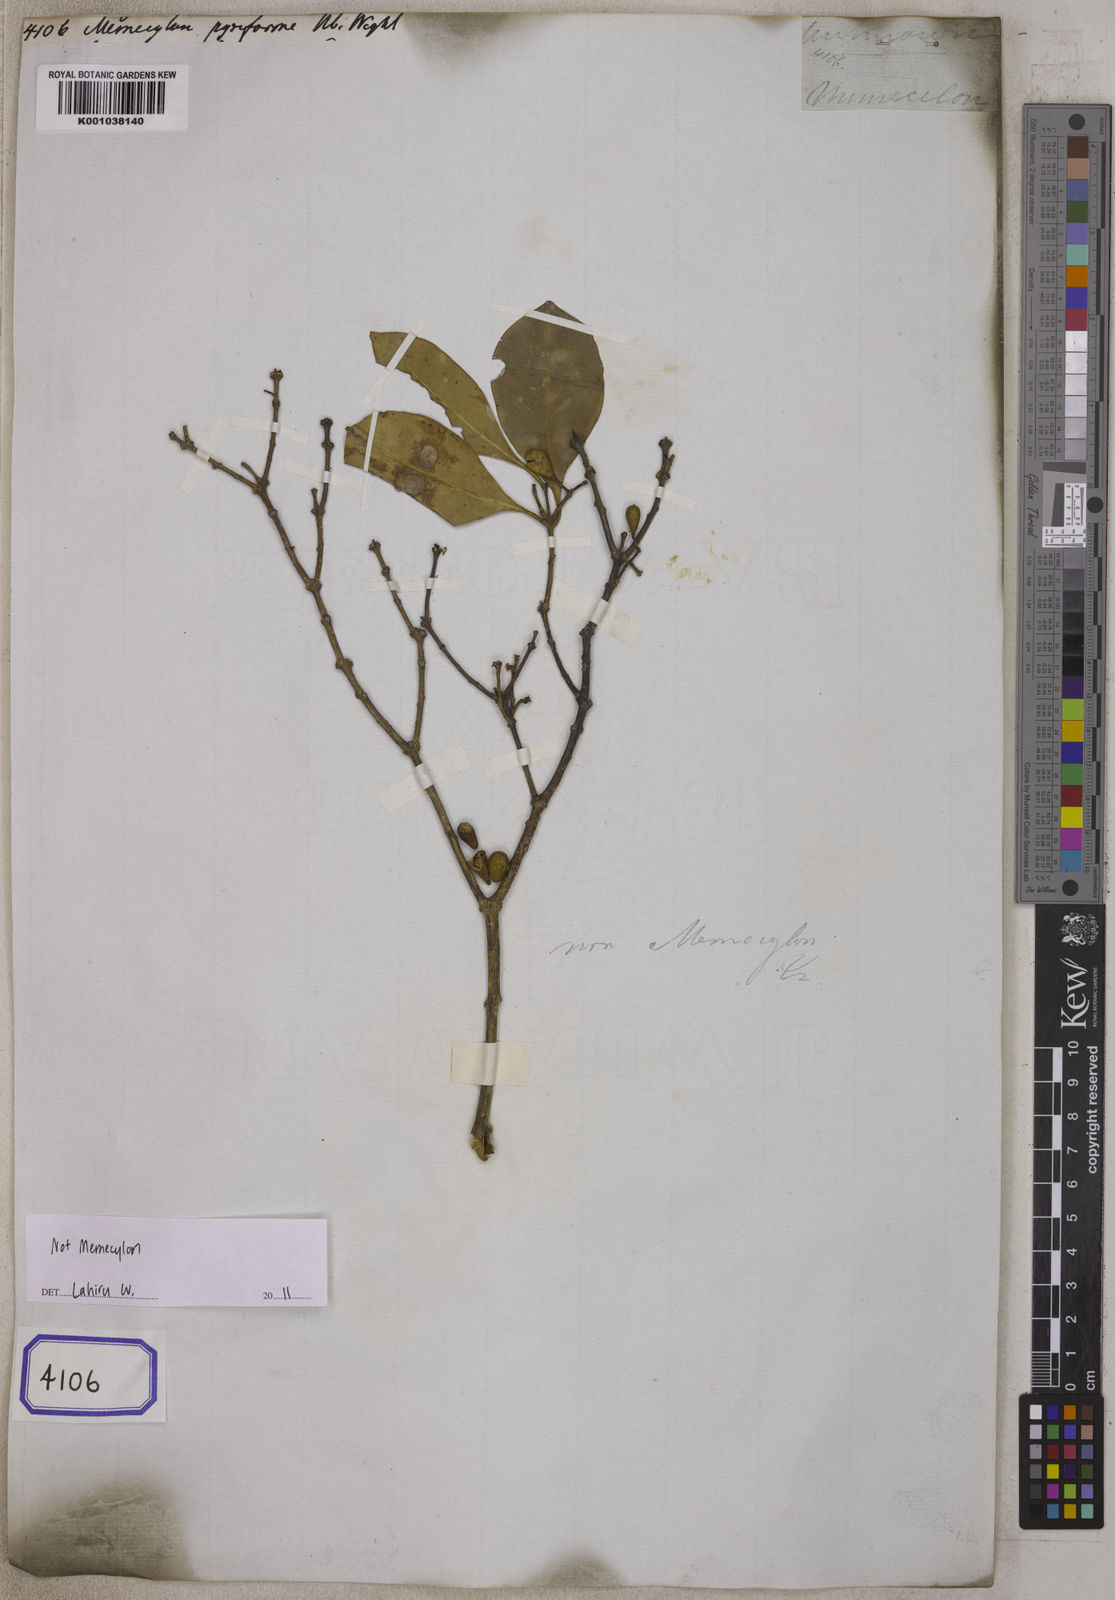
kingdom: Plantae
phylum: Tracheophyta
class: Magnoliopsida
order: Myrtales
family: Melastomataceae
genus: Memecylon
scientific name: Memecylon pyriforme
